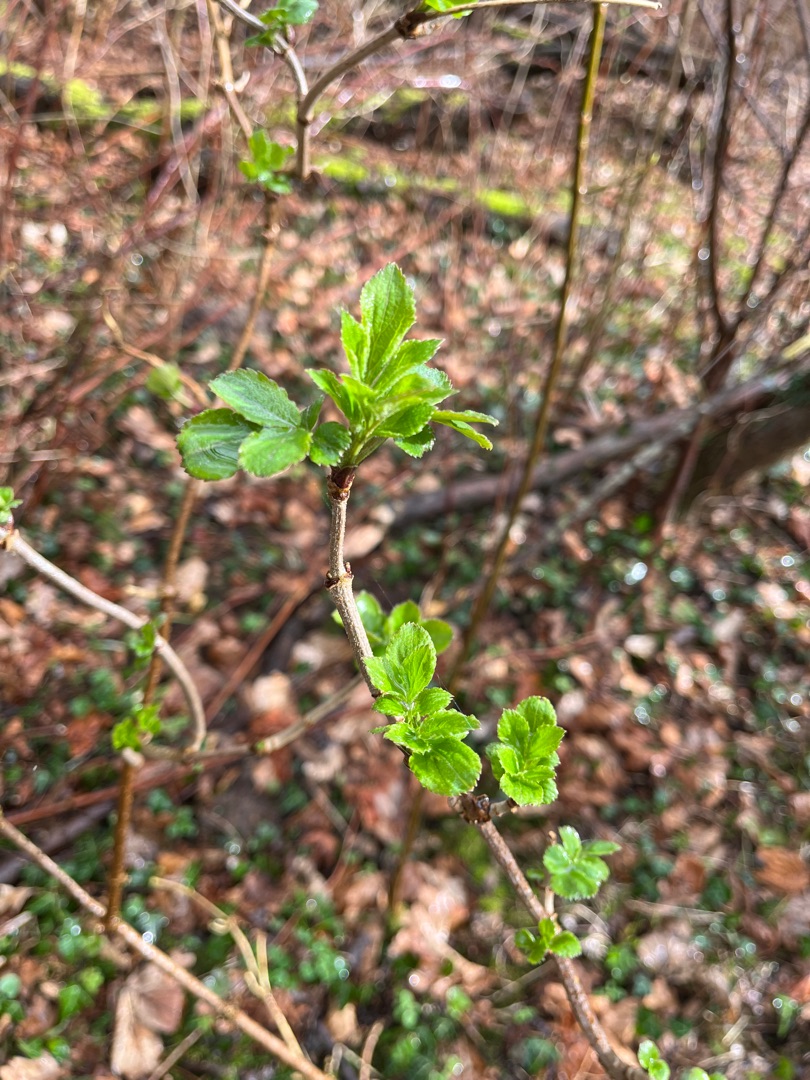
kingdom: Plantae
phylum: Tracheophyta
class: Magnoliopsida
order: Dipsacales
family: Viburnaceae
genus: Sambucus
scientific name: Sambucus nigra
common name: Almindelig hyld
